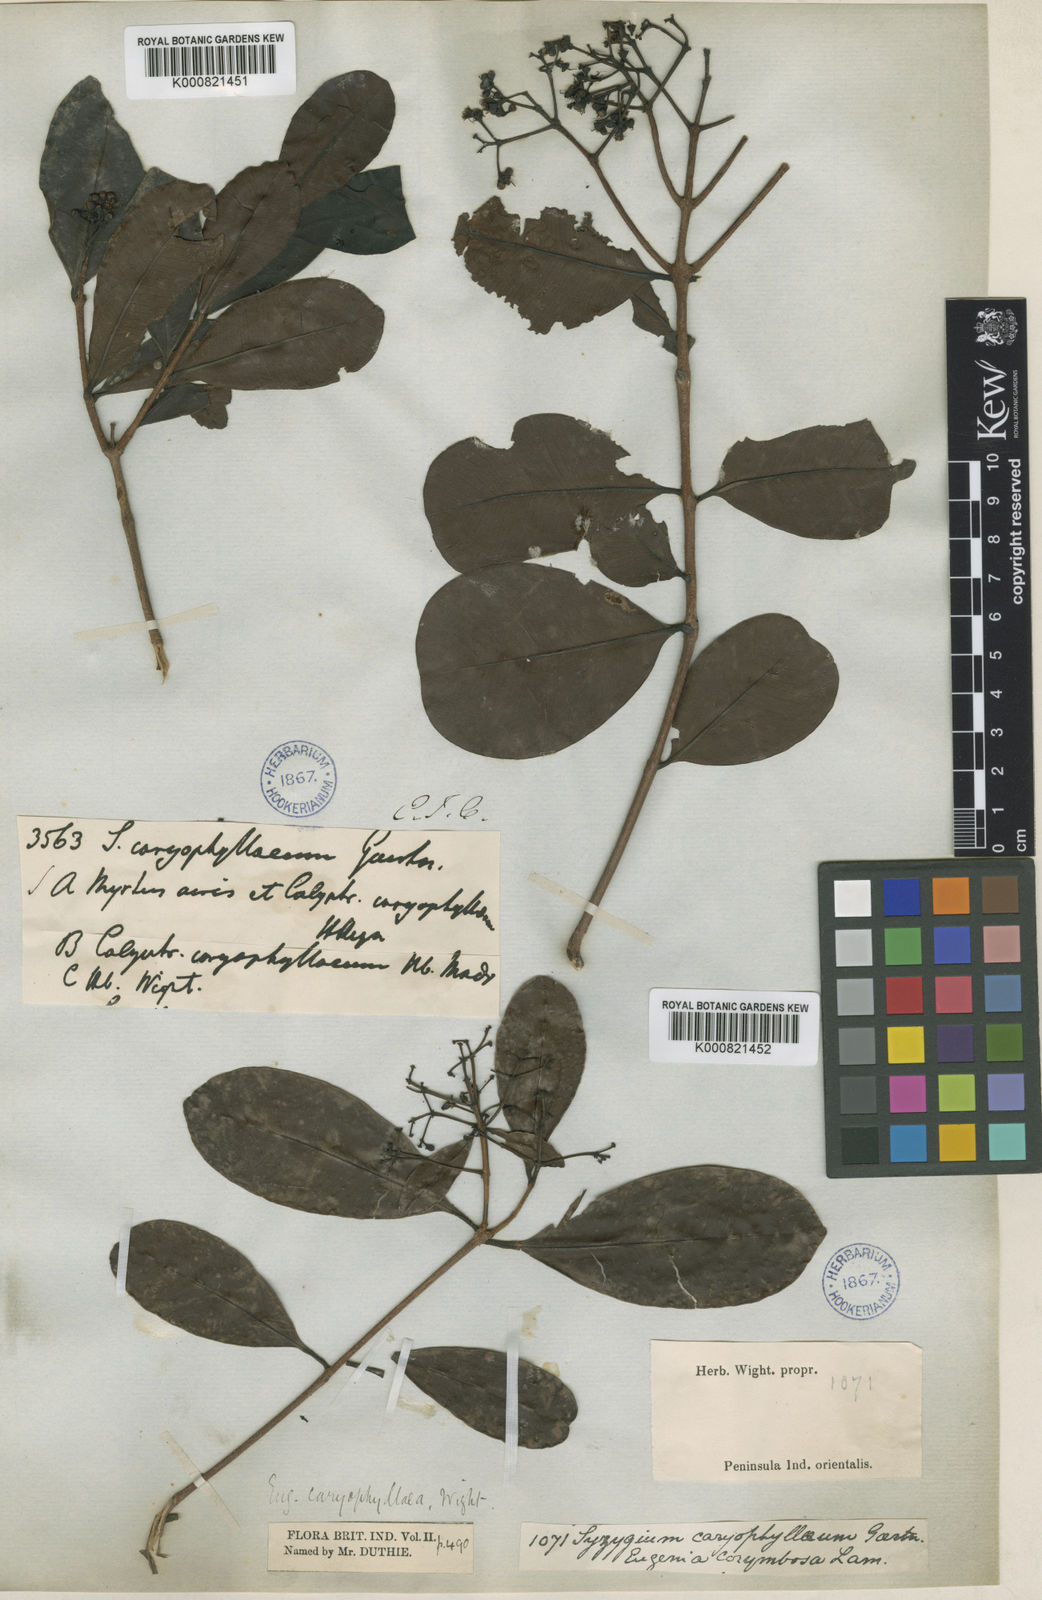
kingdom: Plantae
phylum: Tracheophyta
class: Magnoliopsida
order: Myrtales
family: Myrtaceae
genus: Syzygium
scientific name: Syzygium caryophyllatum
